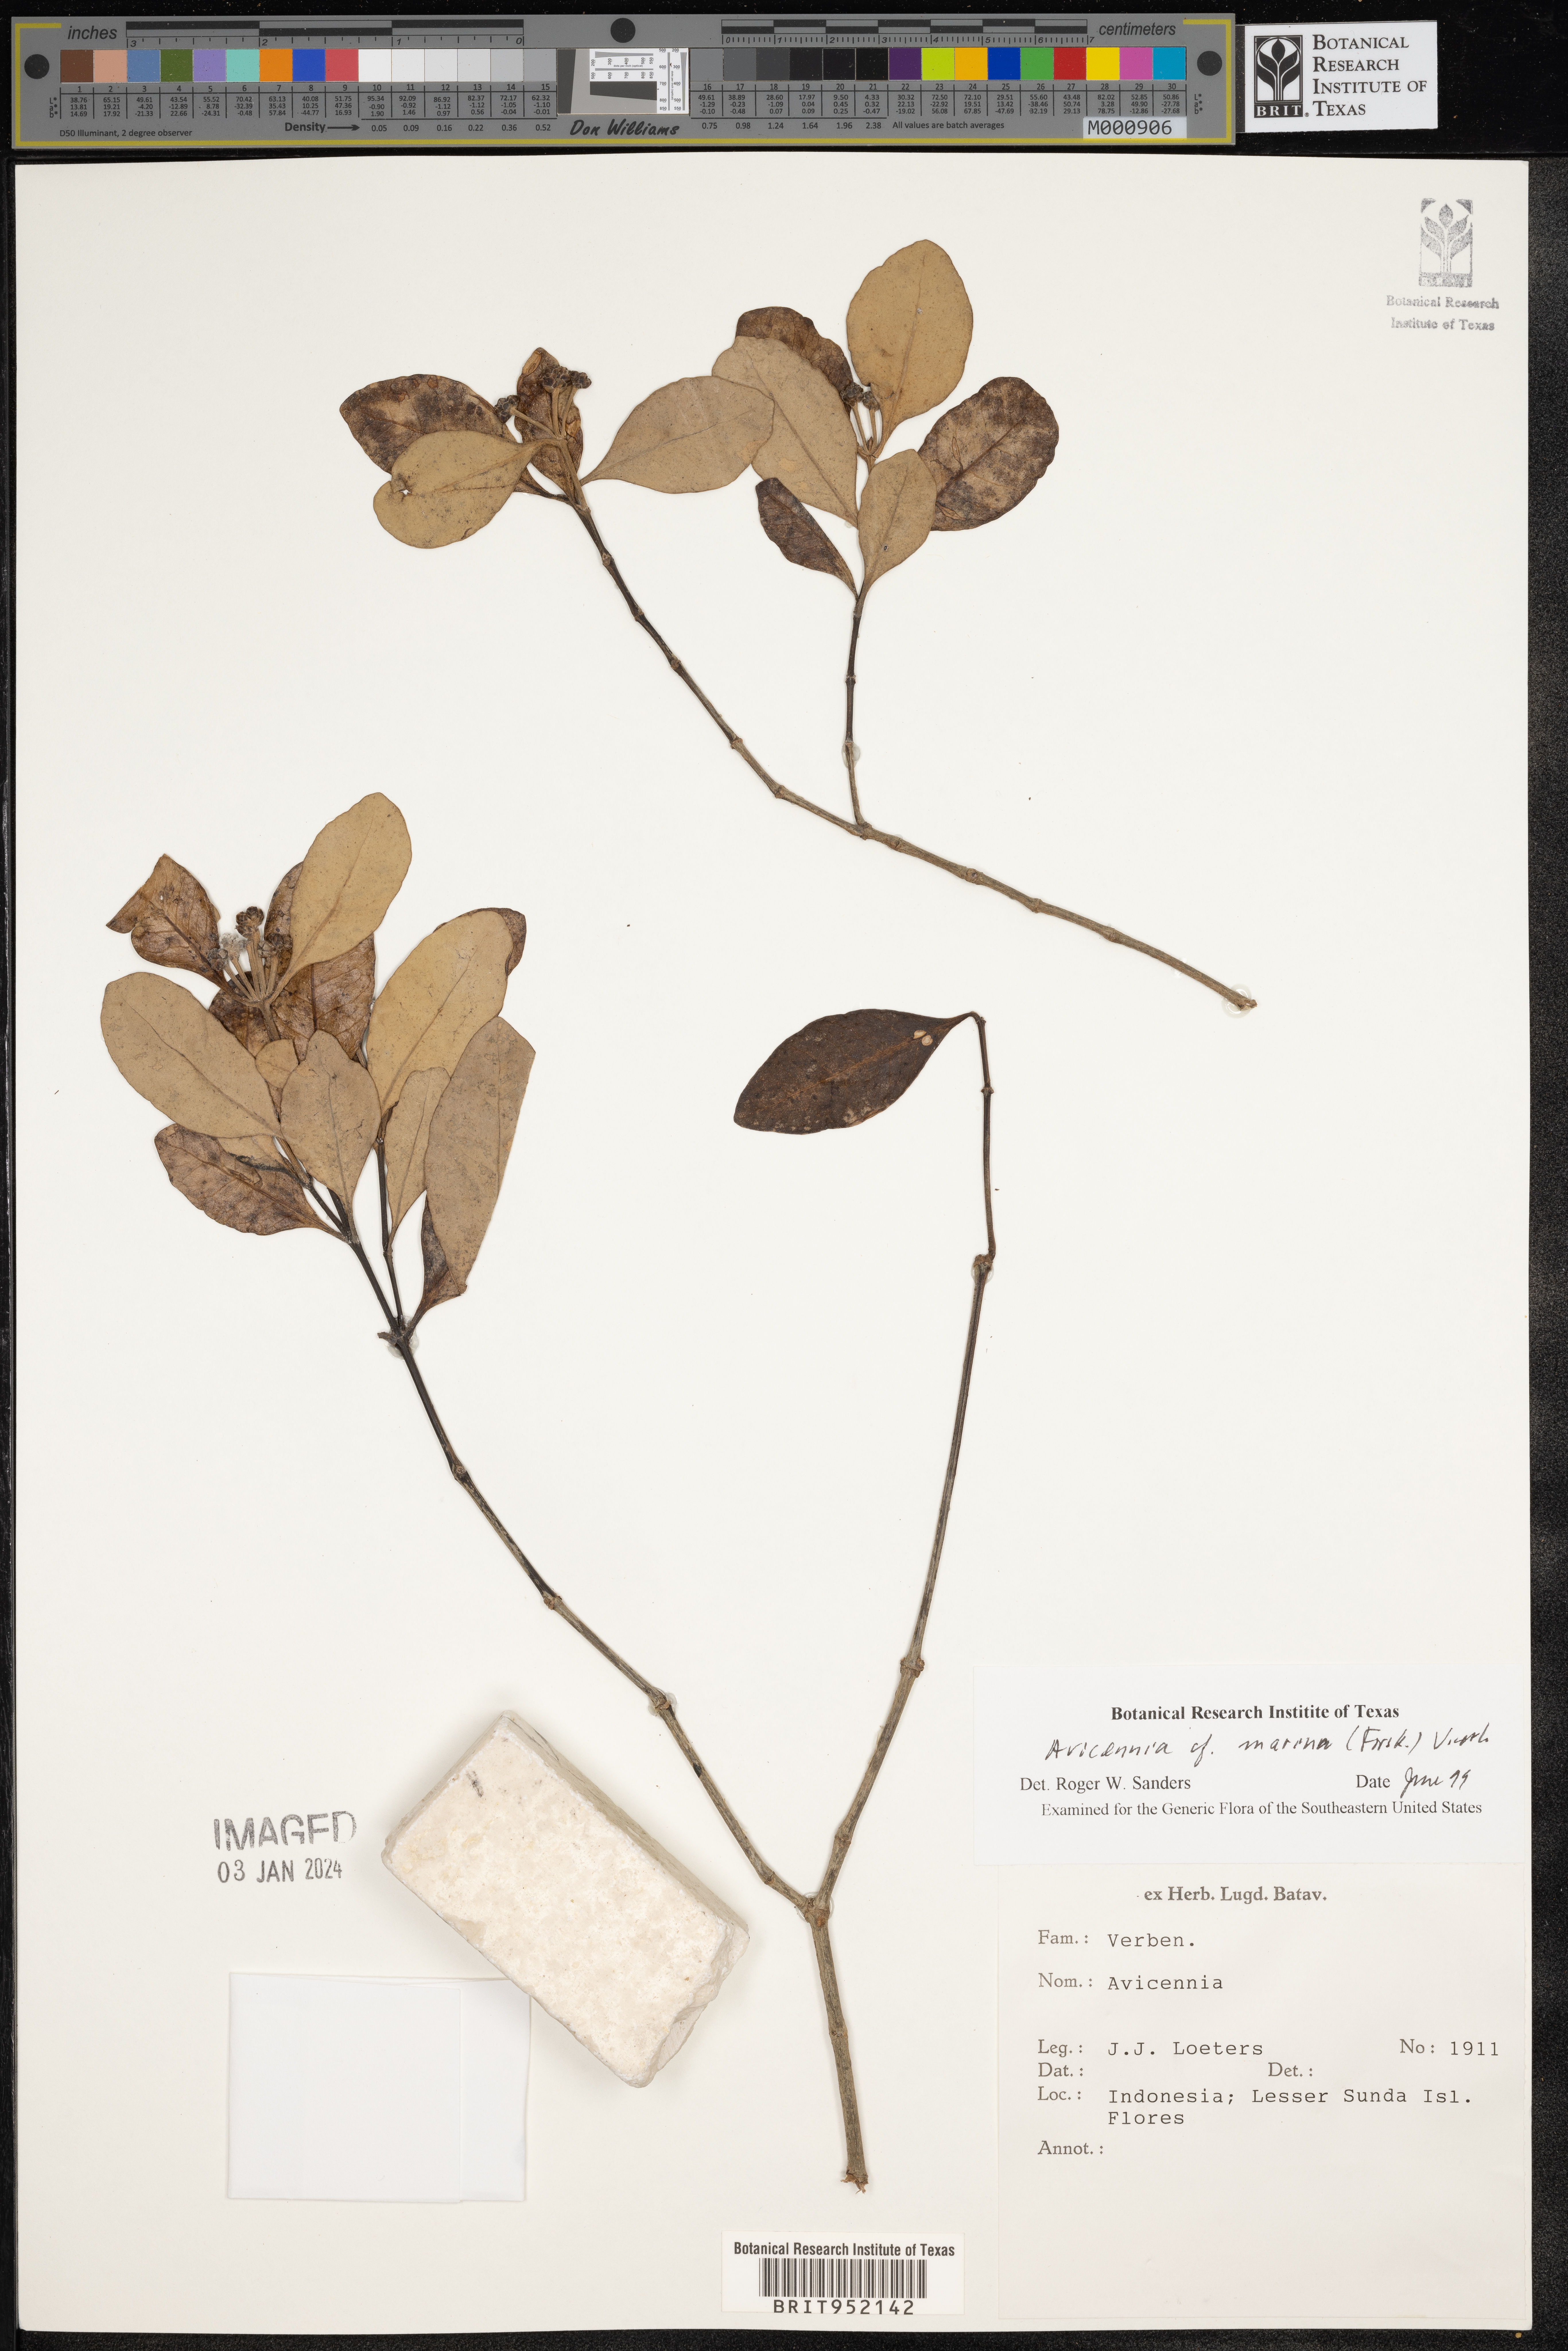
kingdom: Plantae
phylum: Tracheophyta
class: Magnoliopsida
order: Lamiales
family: Acanthaceae
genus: Avicennia
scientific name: Avicennia
